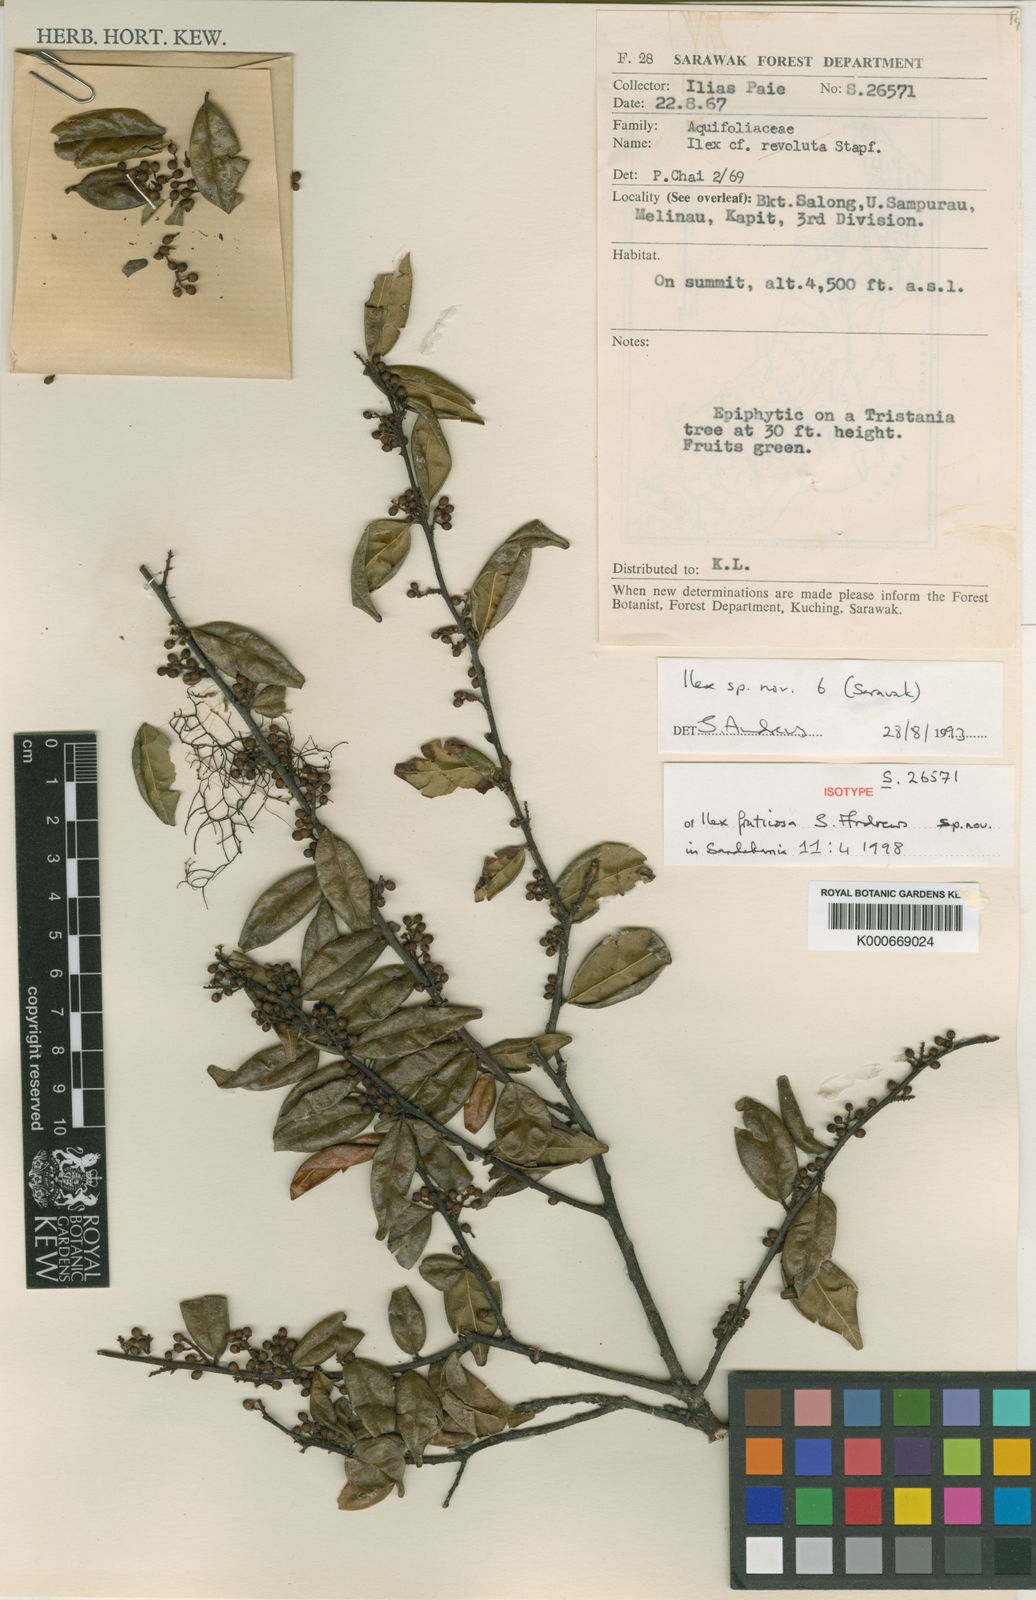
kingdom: Plantae
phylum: Tracheophyta
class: Magnoliopsida
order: Aquifoliales
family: Aquifoliaceae
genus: Ilex
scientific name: Ilex fruticosa
